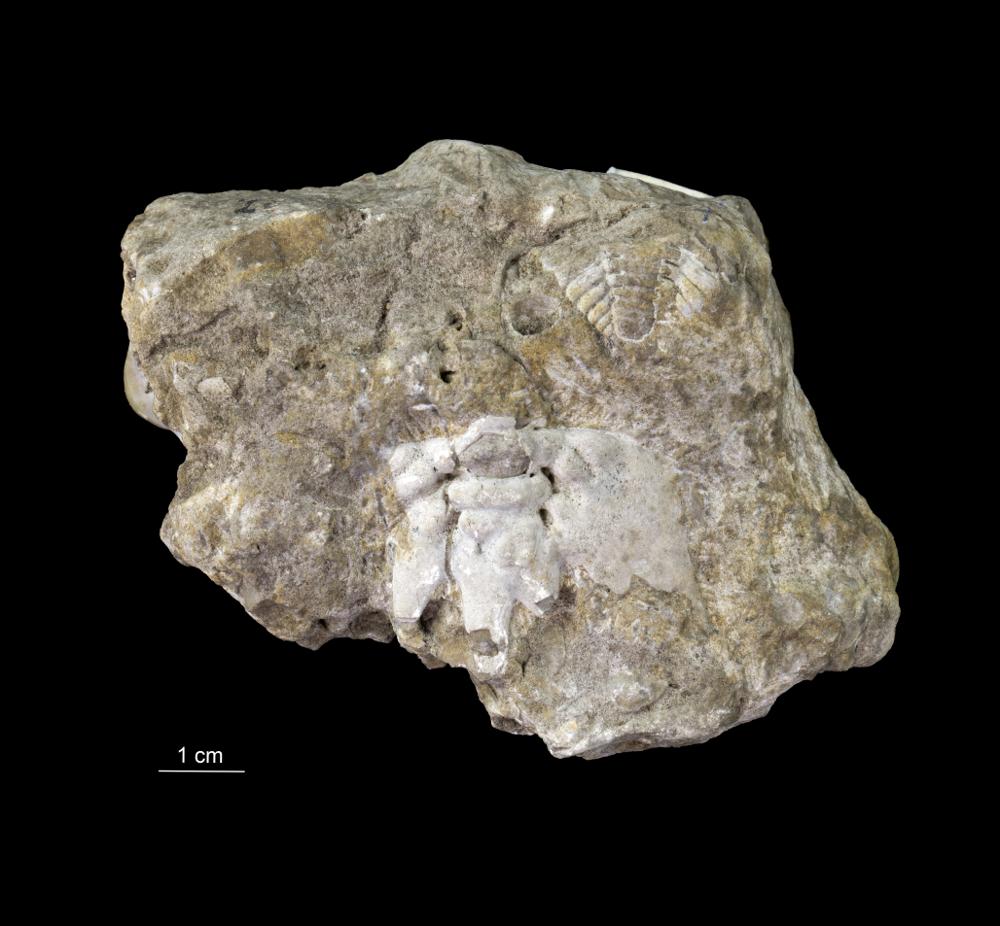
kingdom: Animalia
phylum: Arthropoda
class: Trilobita
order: Phacopida
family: Cheiruridae
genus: Paraceraurus
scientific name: Paraceraurus aculeatus
